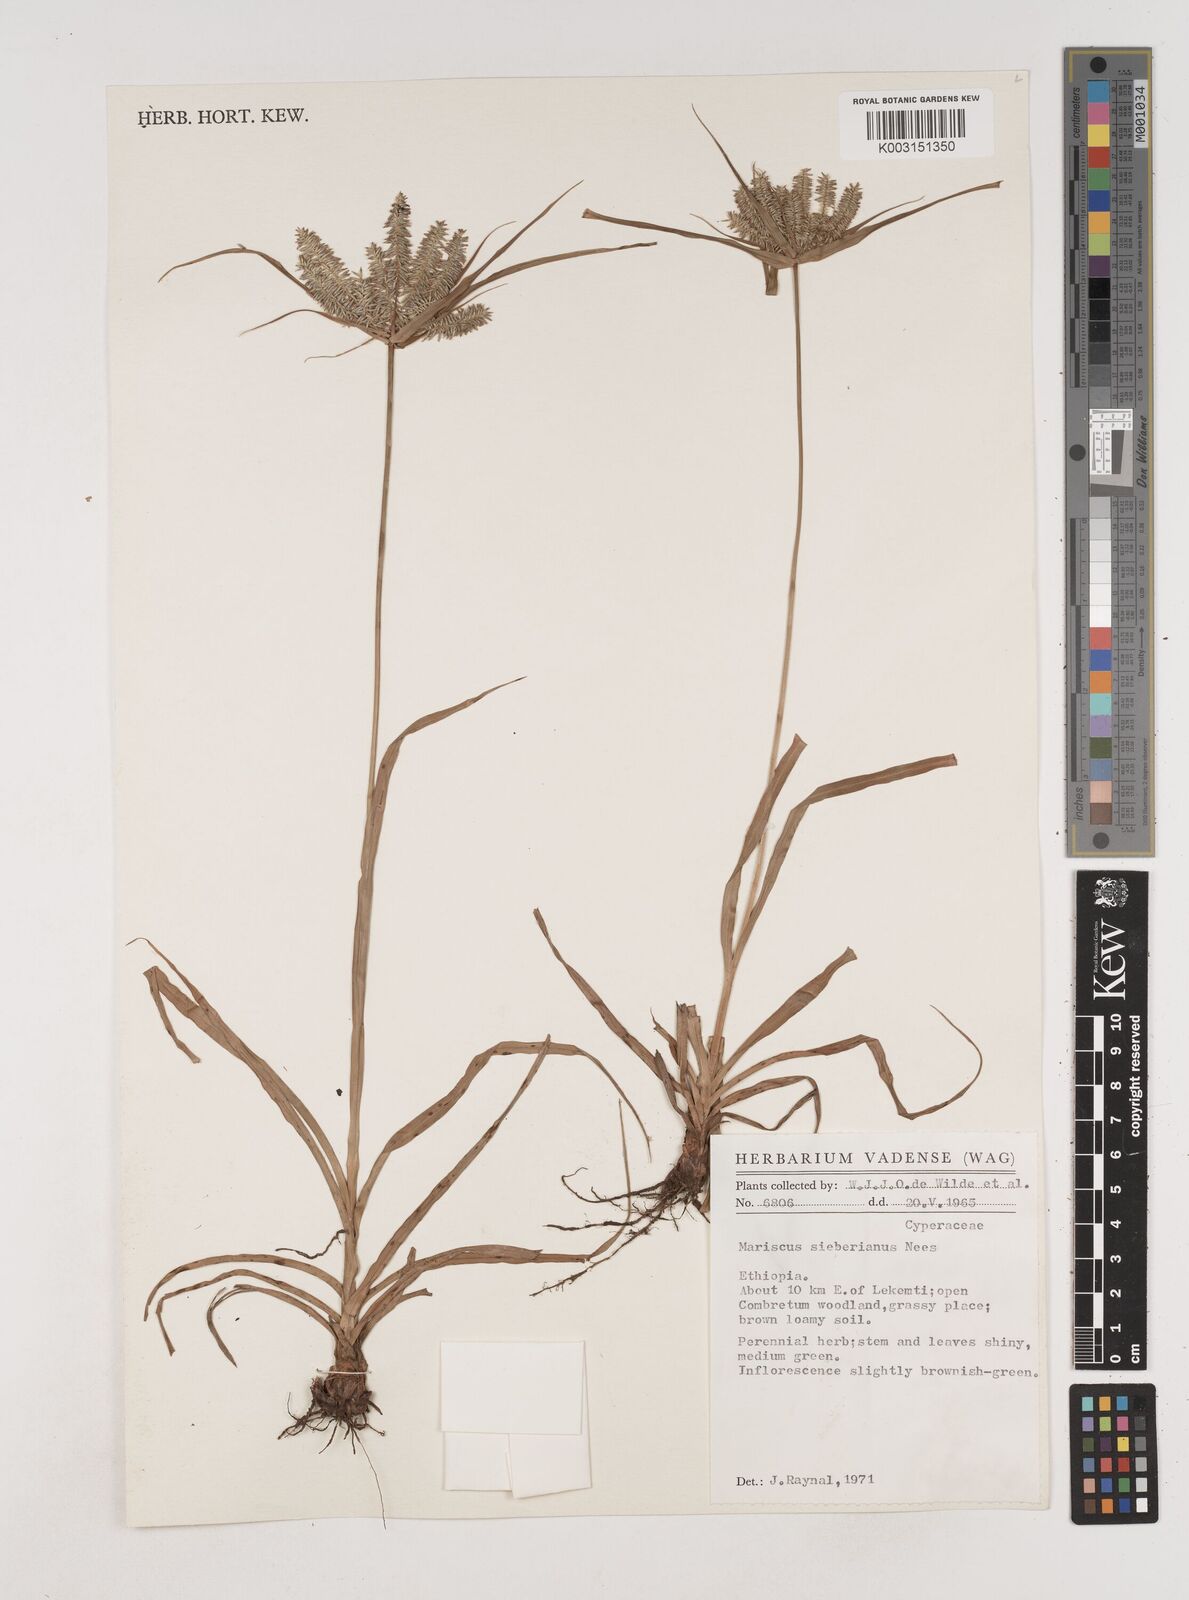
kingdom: Plantae
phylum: Tracheophyta
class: Liliopsida
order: Poales
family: Cyperaceae
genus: Cyperus
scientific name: Cyperus cyperoides
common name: Pacific island flat sedge
